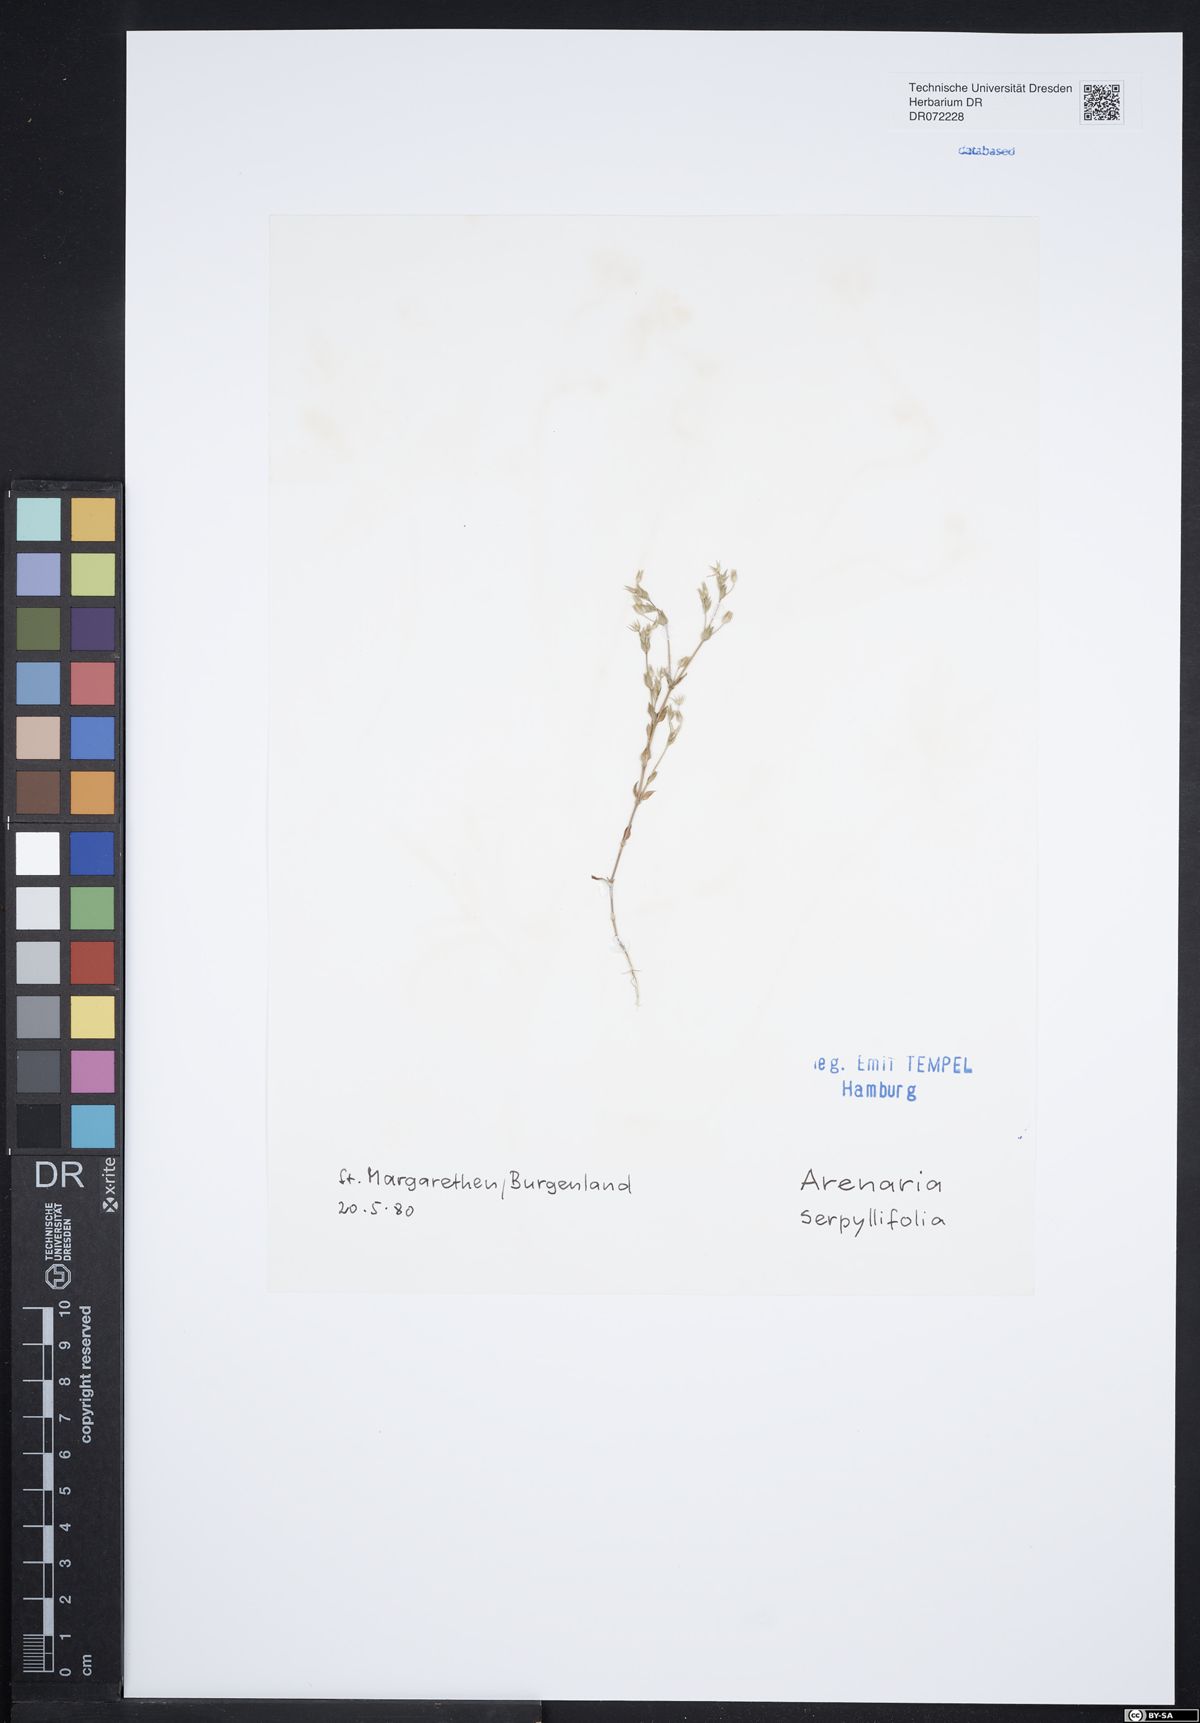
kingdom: Plantae
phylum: Tracheophyta
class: Magnoliopsida
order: Caryophyllales
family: Caryophyllaceae
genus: Arenaria
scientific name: Arenaria serpyllifolia
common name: Thyme-leaved sandwort
